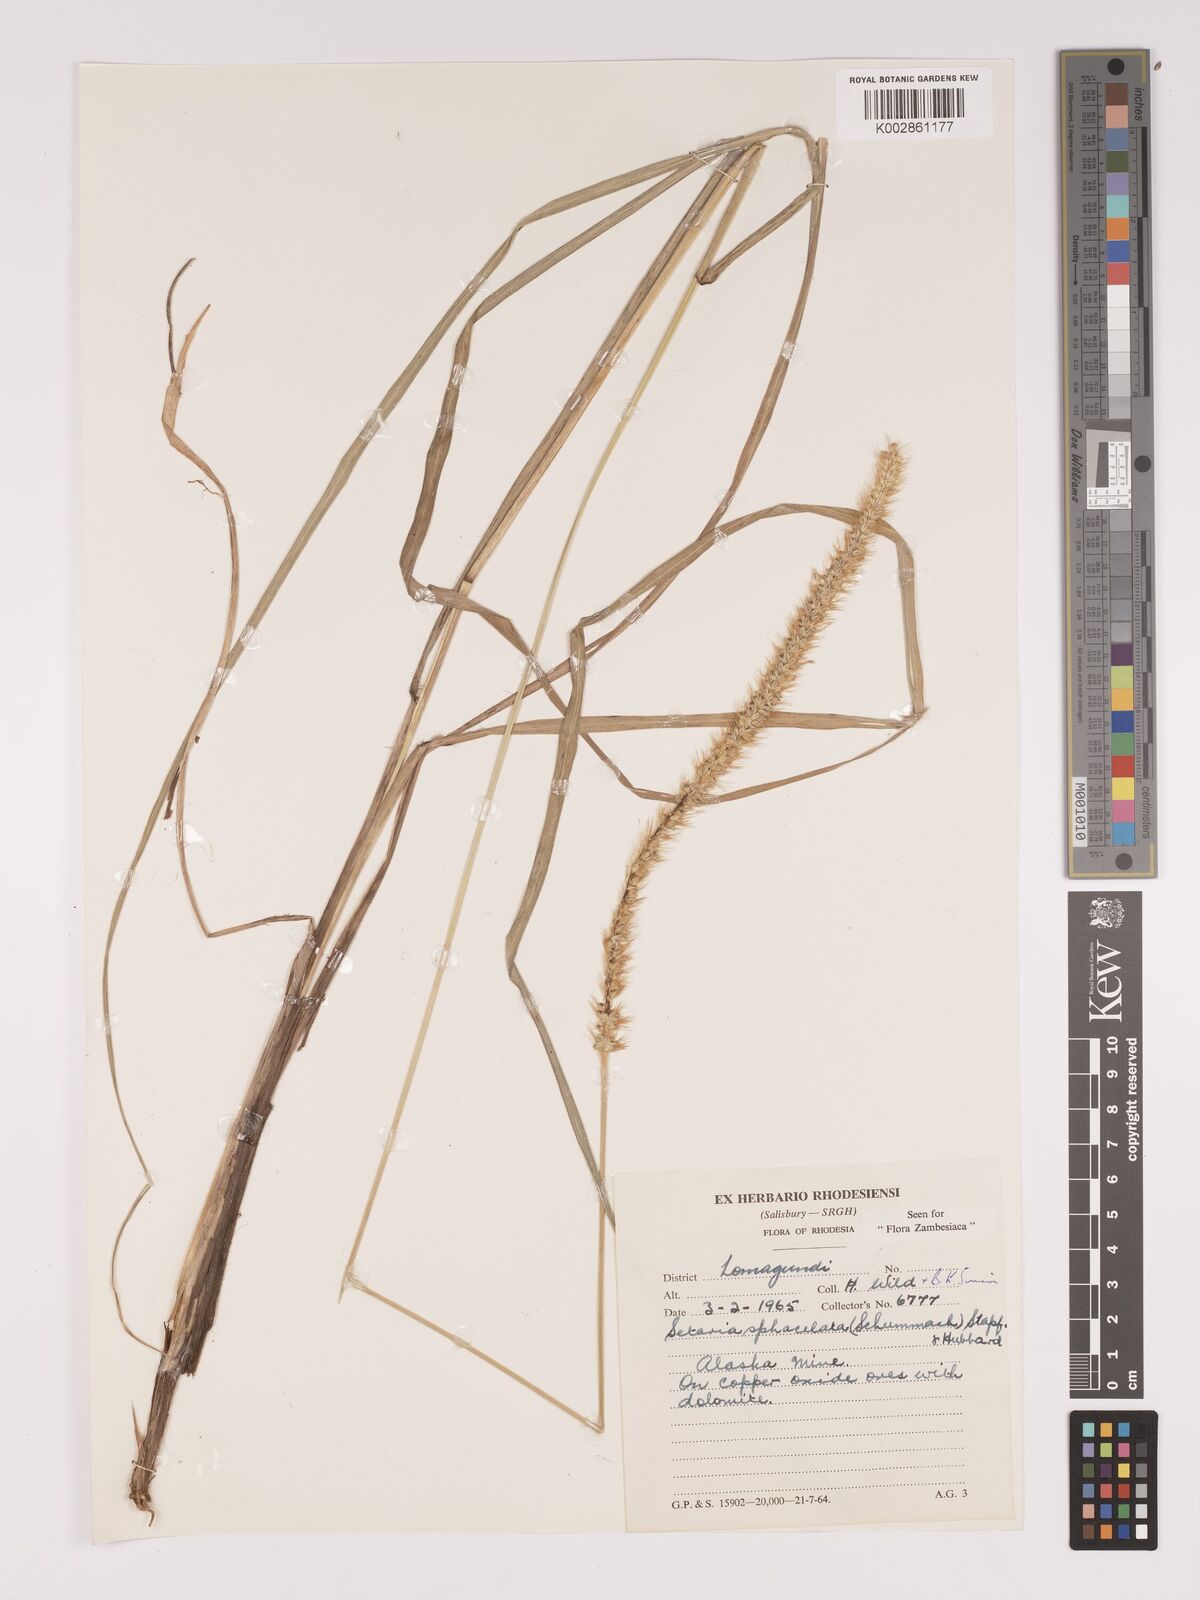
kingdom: Plantae
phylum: Tracheophyta
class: Liliopsida
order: Poales
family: Poaceae
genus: Setaria
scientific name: Setaria sphacelata
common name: African bristlegrass
